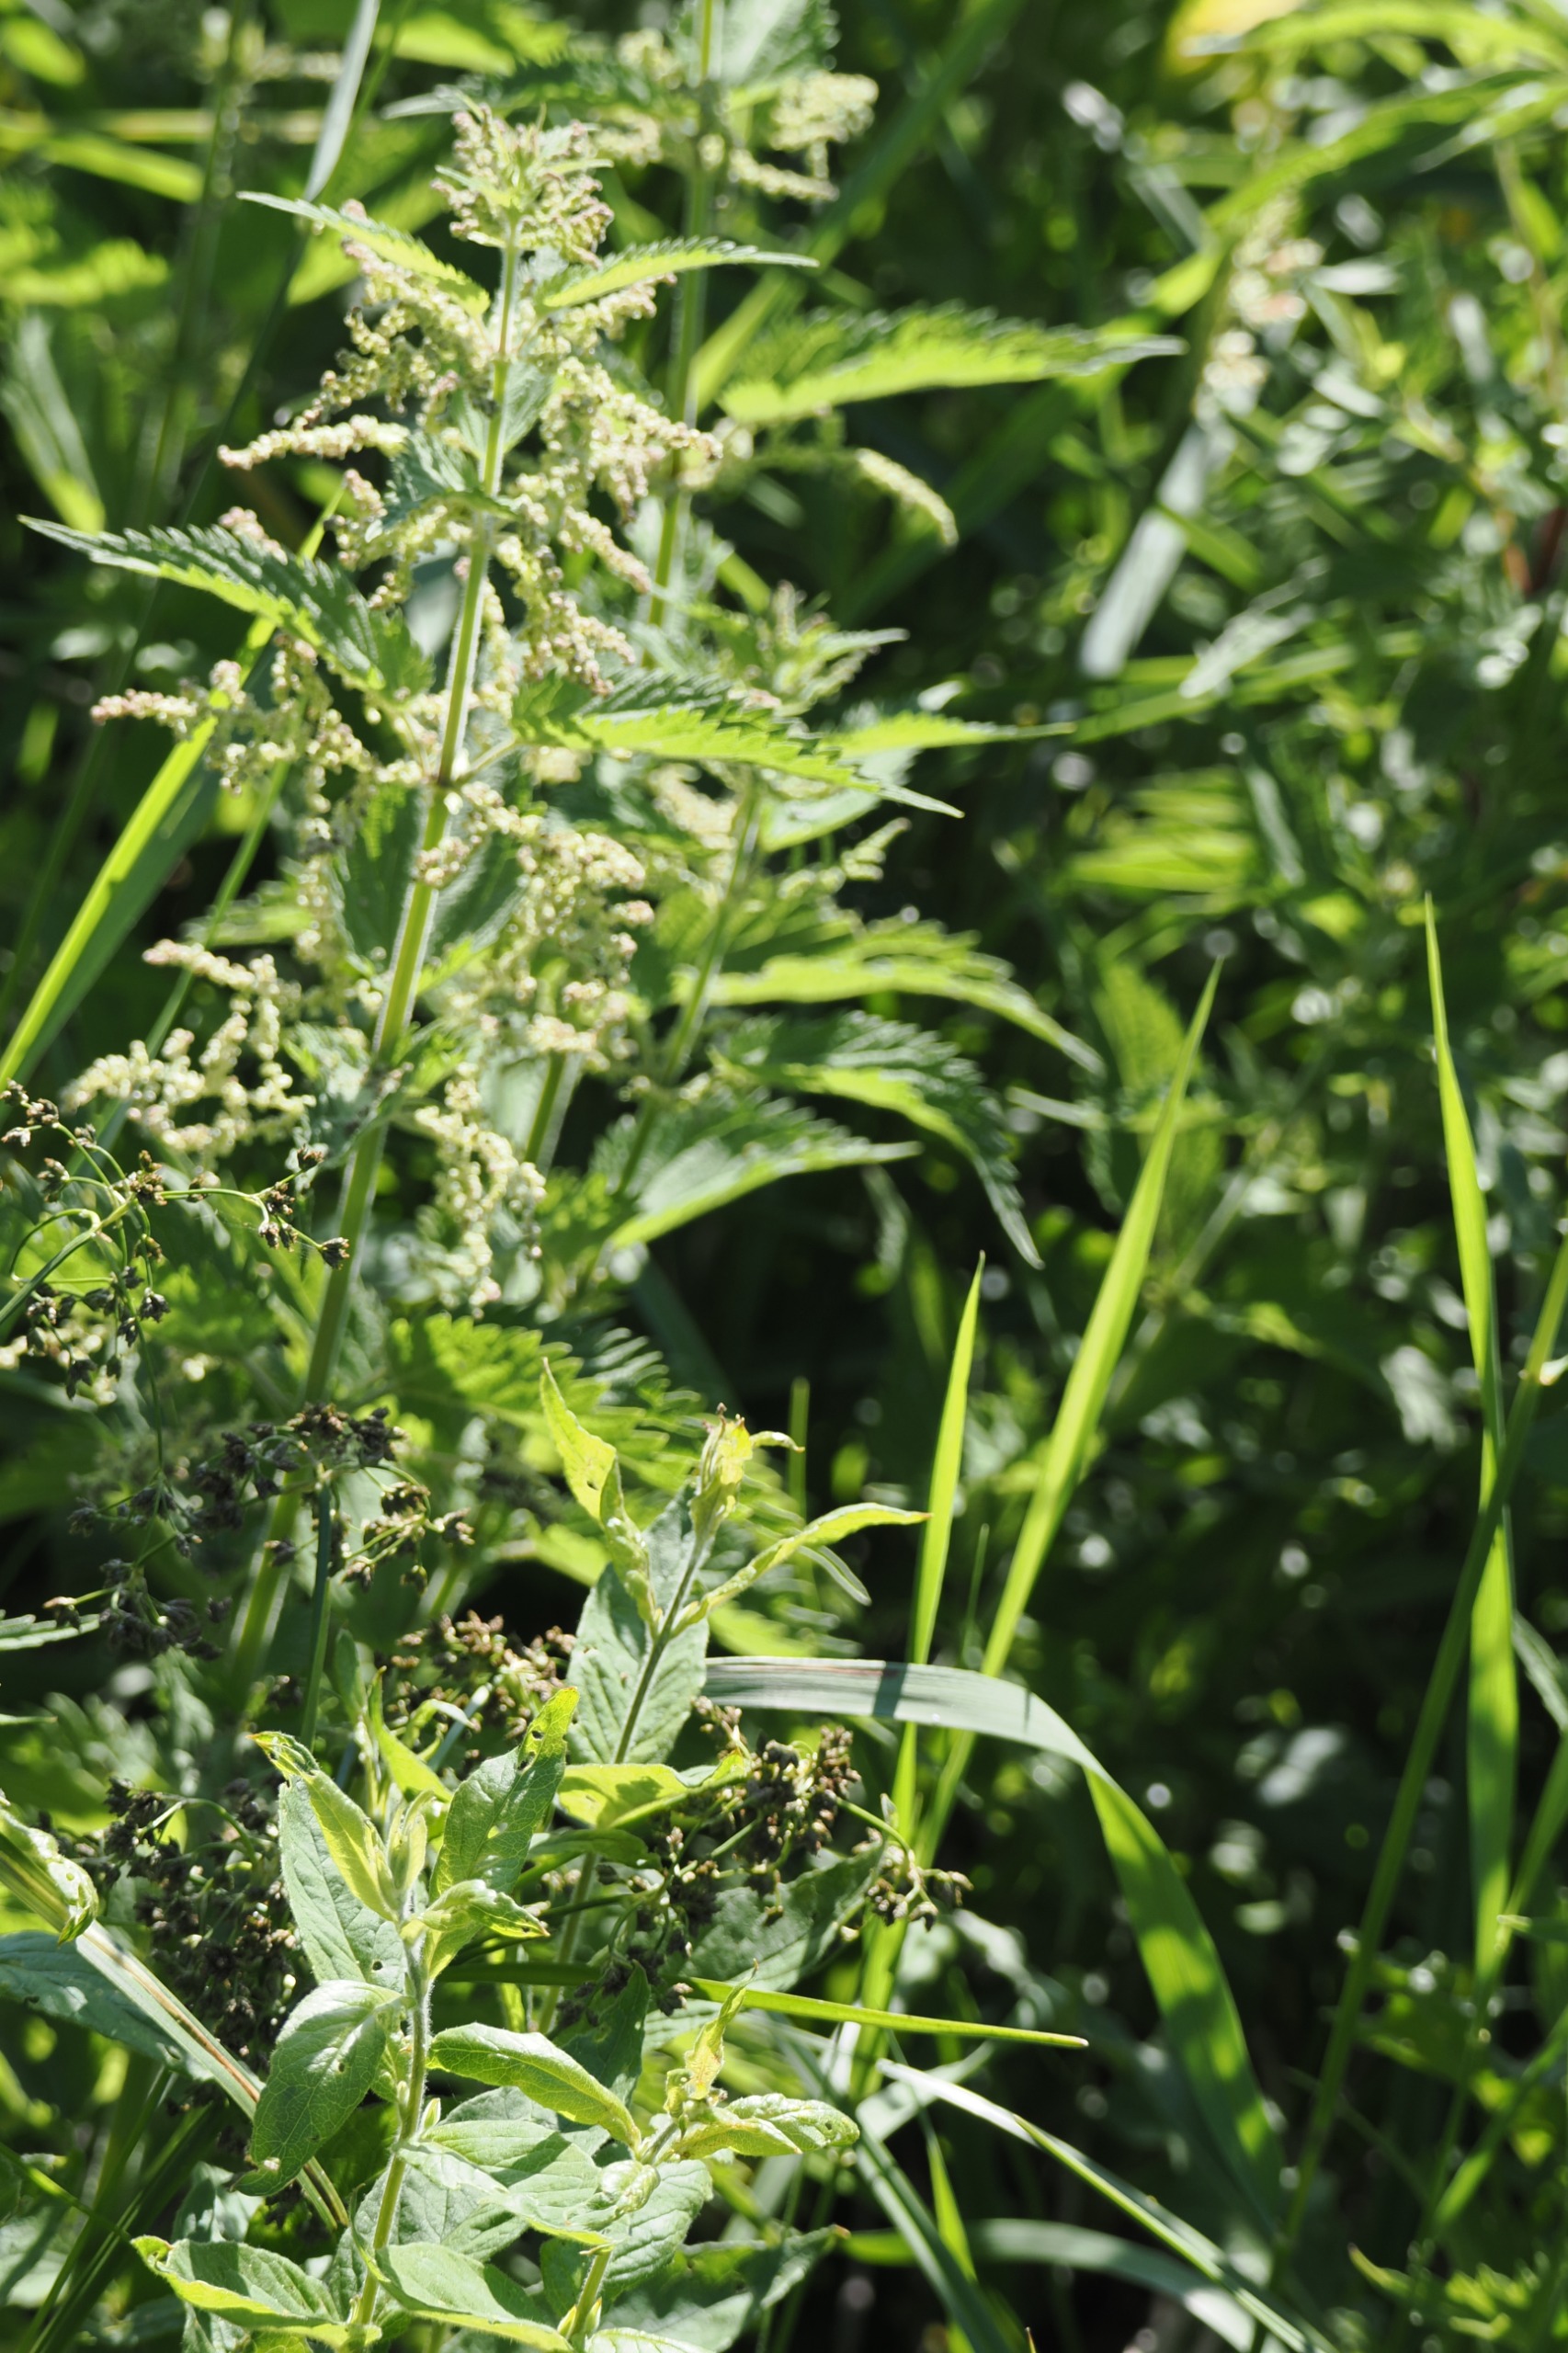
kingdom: Plantae
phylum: Tracheophyta
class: Magnoliopsida
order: Rosales
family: Urticaceae
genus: Urtica
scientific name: Urtica dioica
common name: Stor nælde
